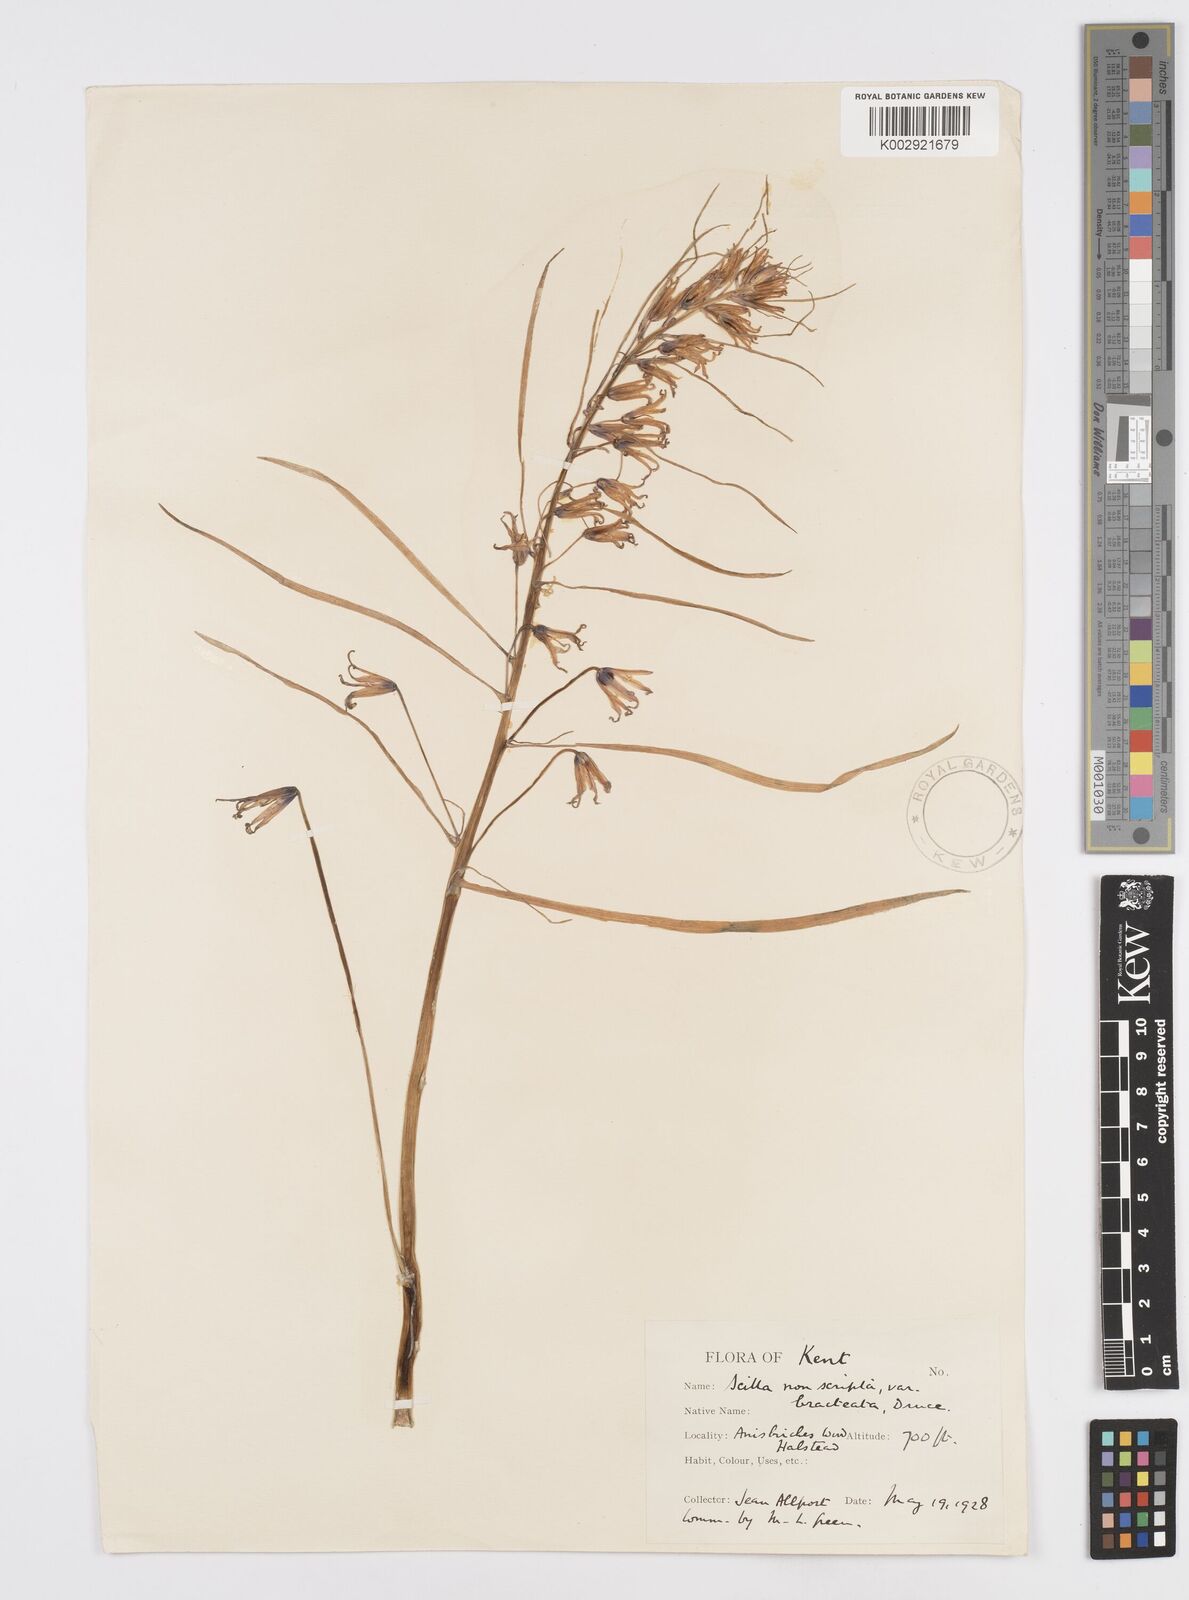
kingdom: Plantae
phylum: Tracheophyta
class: Liliopsida
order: Asparagales
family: Asparagaceae
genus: Hyacinthoides
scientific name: Hyacinthoides
